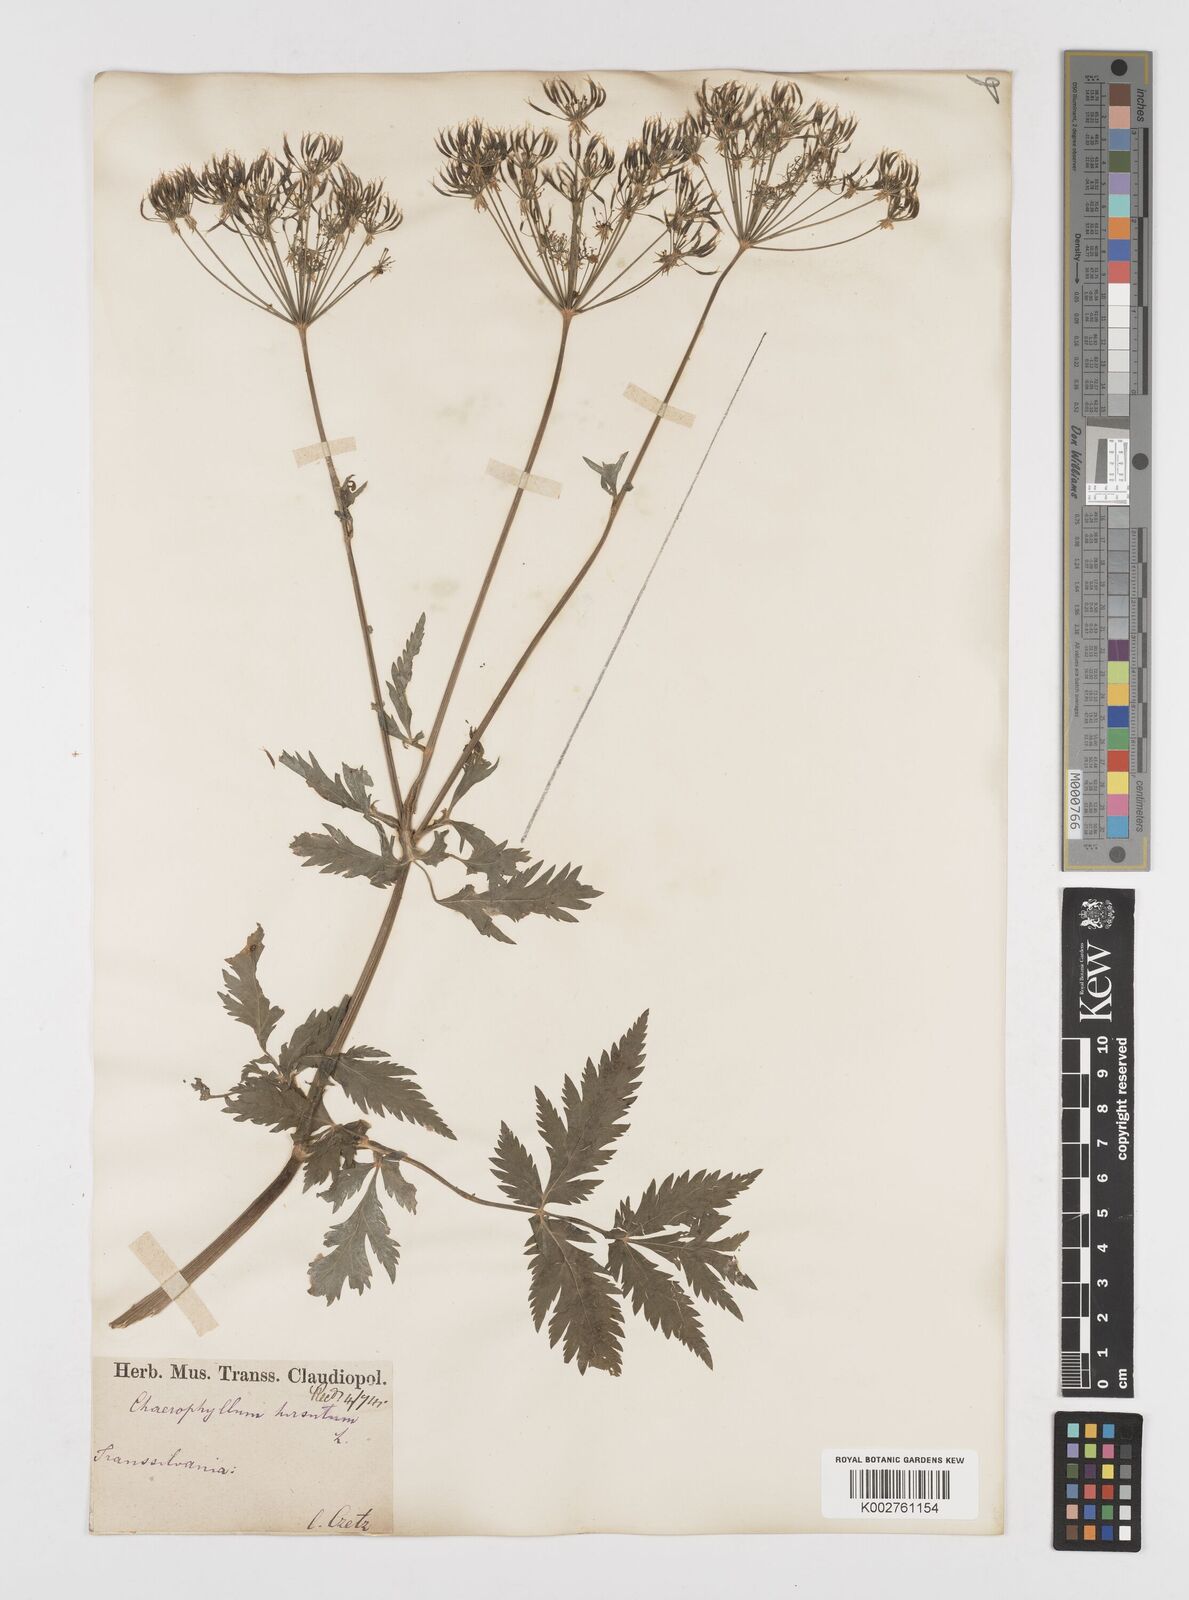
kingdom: Plantae
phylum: Tracheophyta
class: Magnoliopsida
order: Apiales
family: Apiaceae
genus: Chaerophyllum
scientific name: Chaerophyllum hirsutum
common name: Hairy chervil
